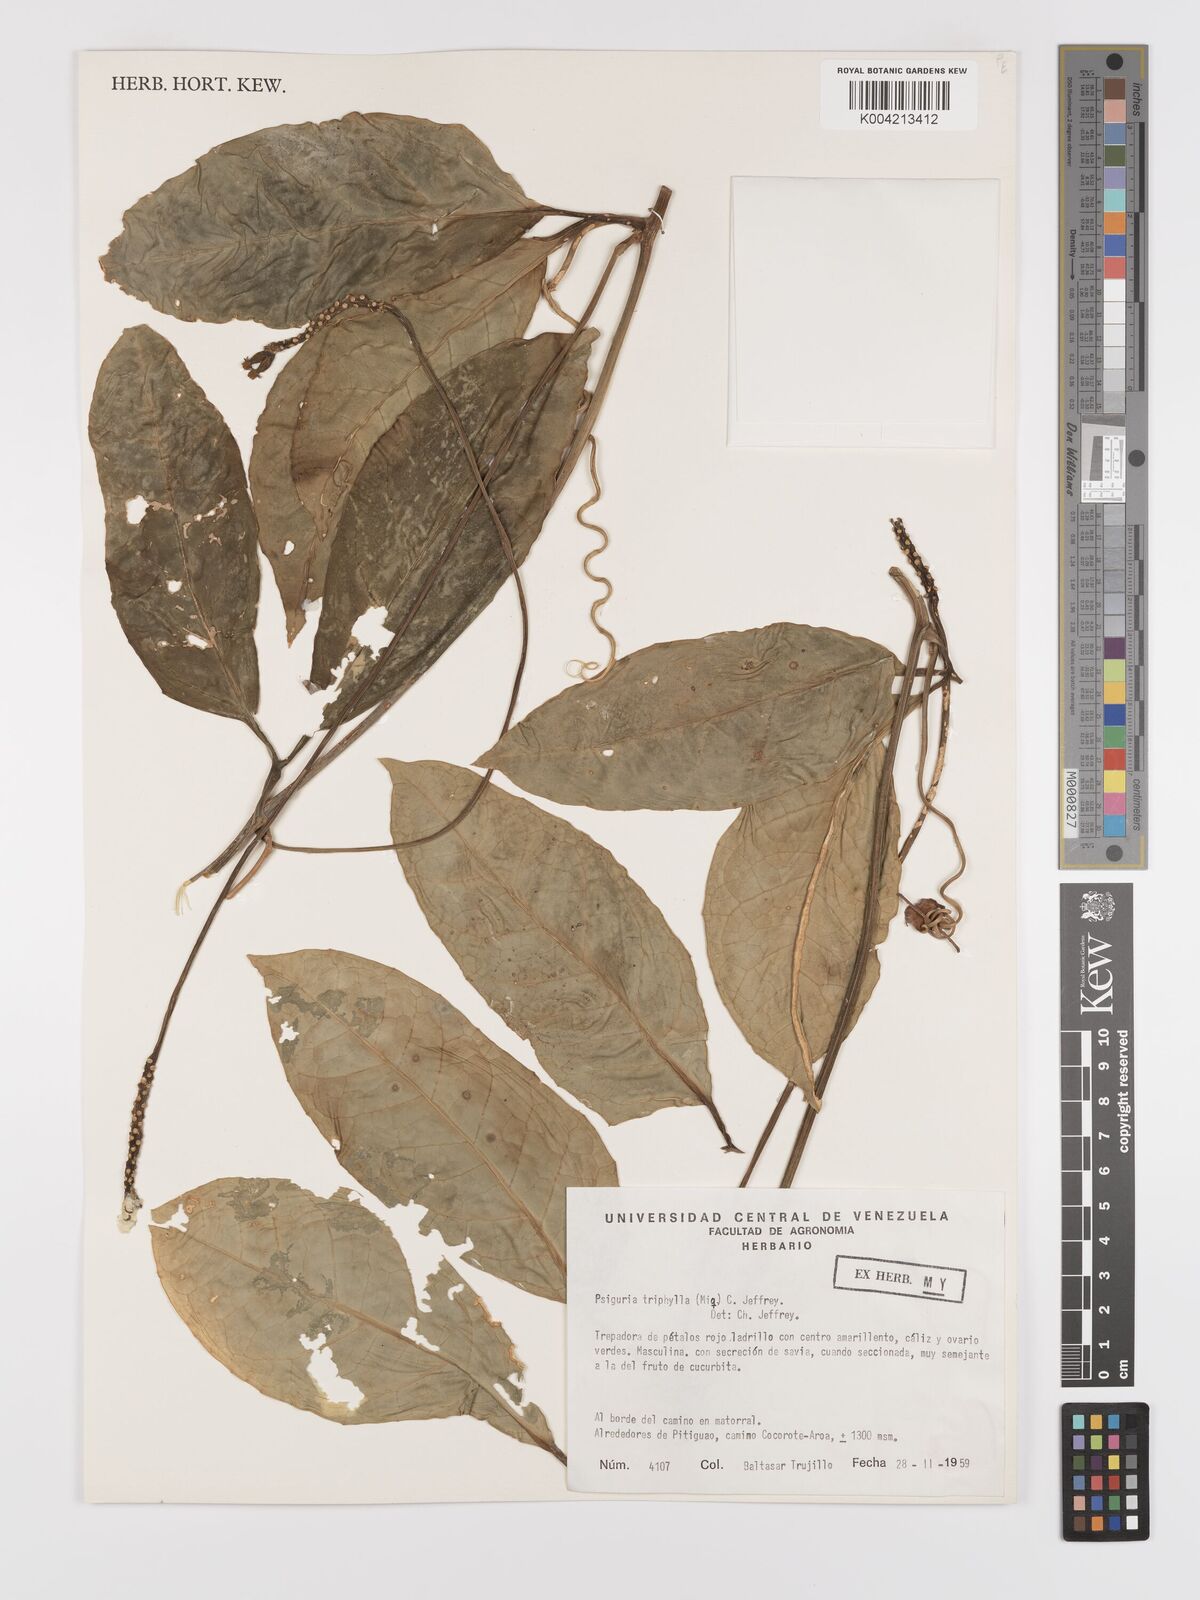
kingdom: Plantae
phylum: Tracheophyta
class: Magnoliopsida
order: Cucurbitales
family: Cucurbitaceae
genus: Psiguria
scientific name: Psiguria triphylla
